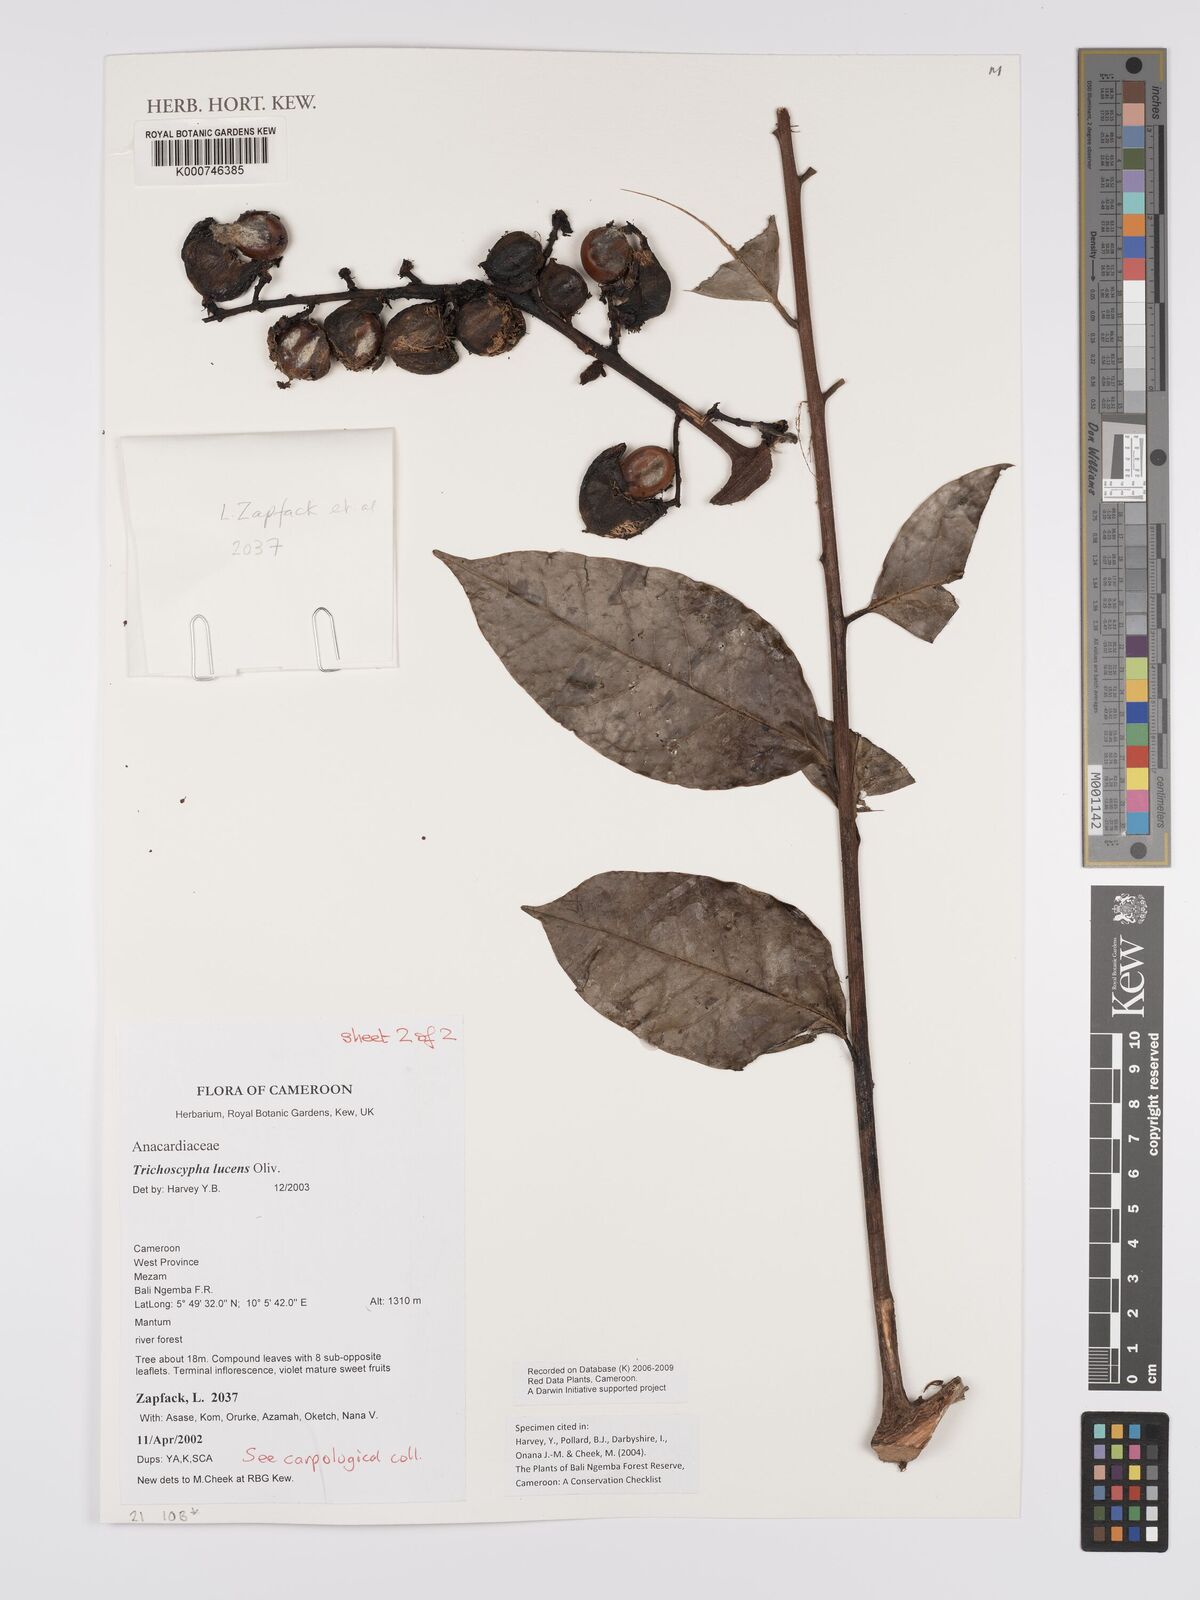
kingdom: Plantae
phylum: Tracheophyta
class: Magnoliopsida
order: Sapindales
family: Anacardiaceae
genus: Trichoscypha
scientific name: Trichoscypha lucens
